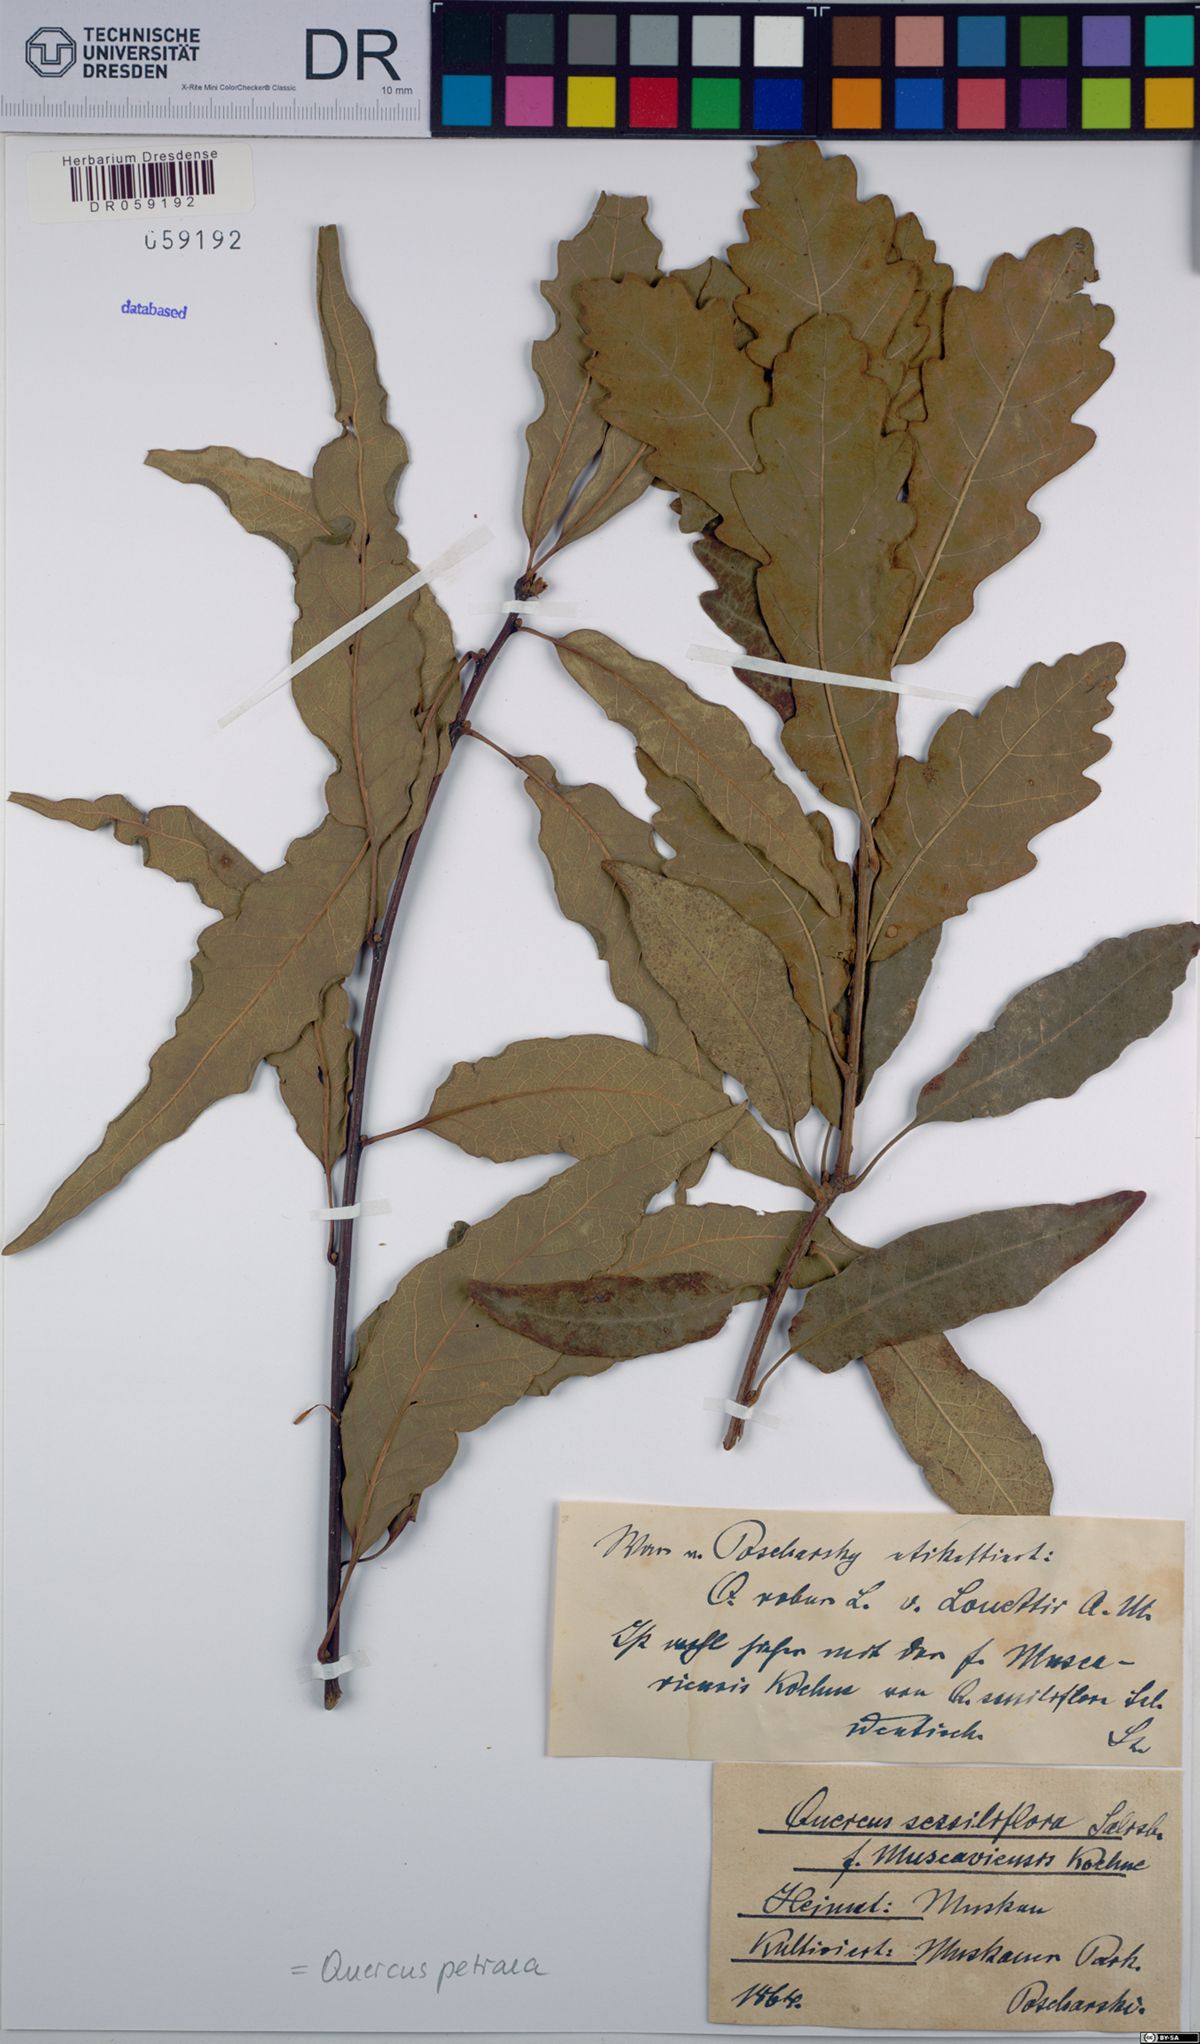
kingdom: Plantae
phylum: Tracheophyta
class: Magnoliopsida
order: Fagales
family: Fagaceae
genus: Quercus
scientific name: Quercus petraea
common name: Sessile oak
